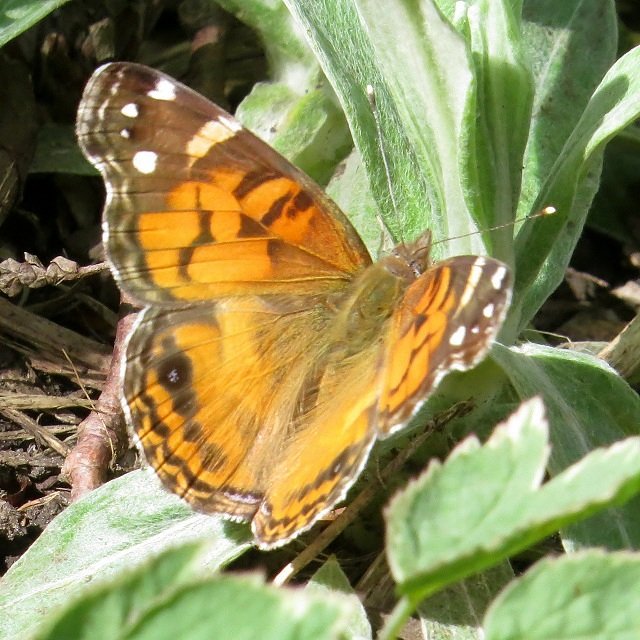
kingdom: Animalia
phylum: Arthropoda
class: Insecta
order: Lepidoptera
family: Nymphalidae
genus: Vanessa
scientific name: Vanessa virginiensis
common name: American Lady
